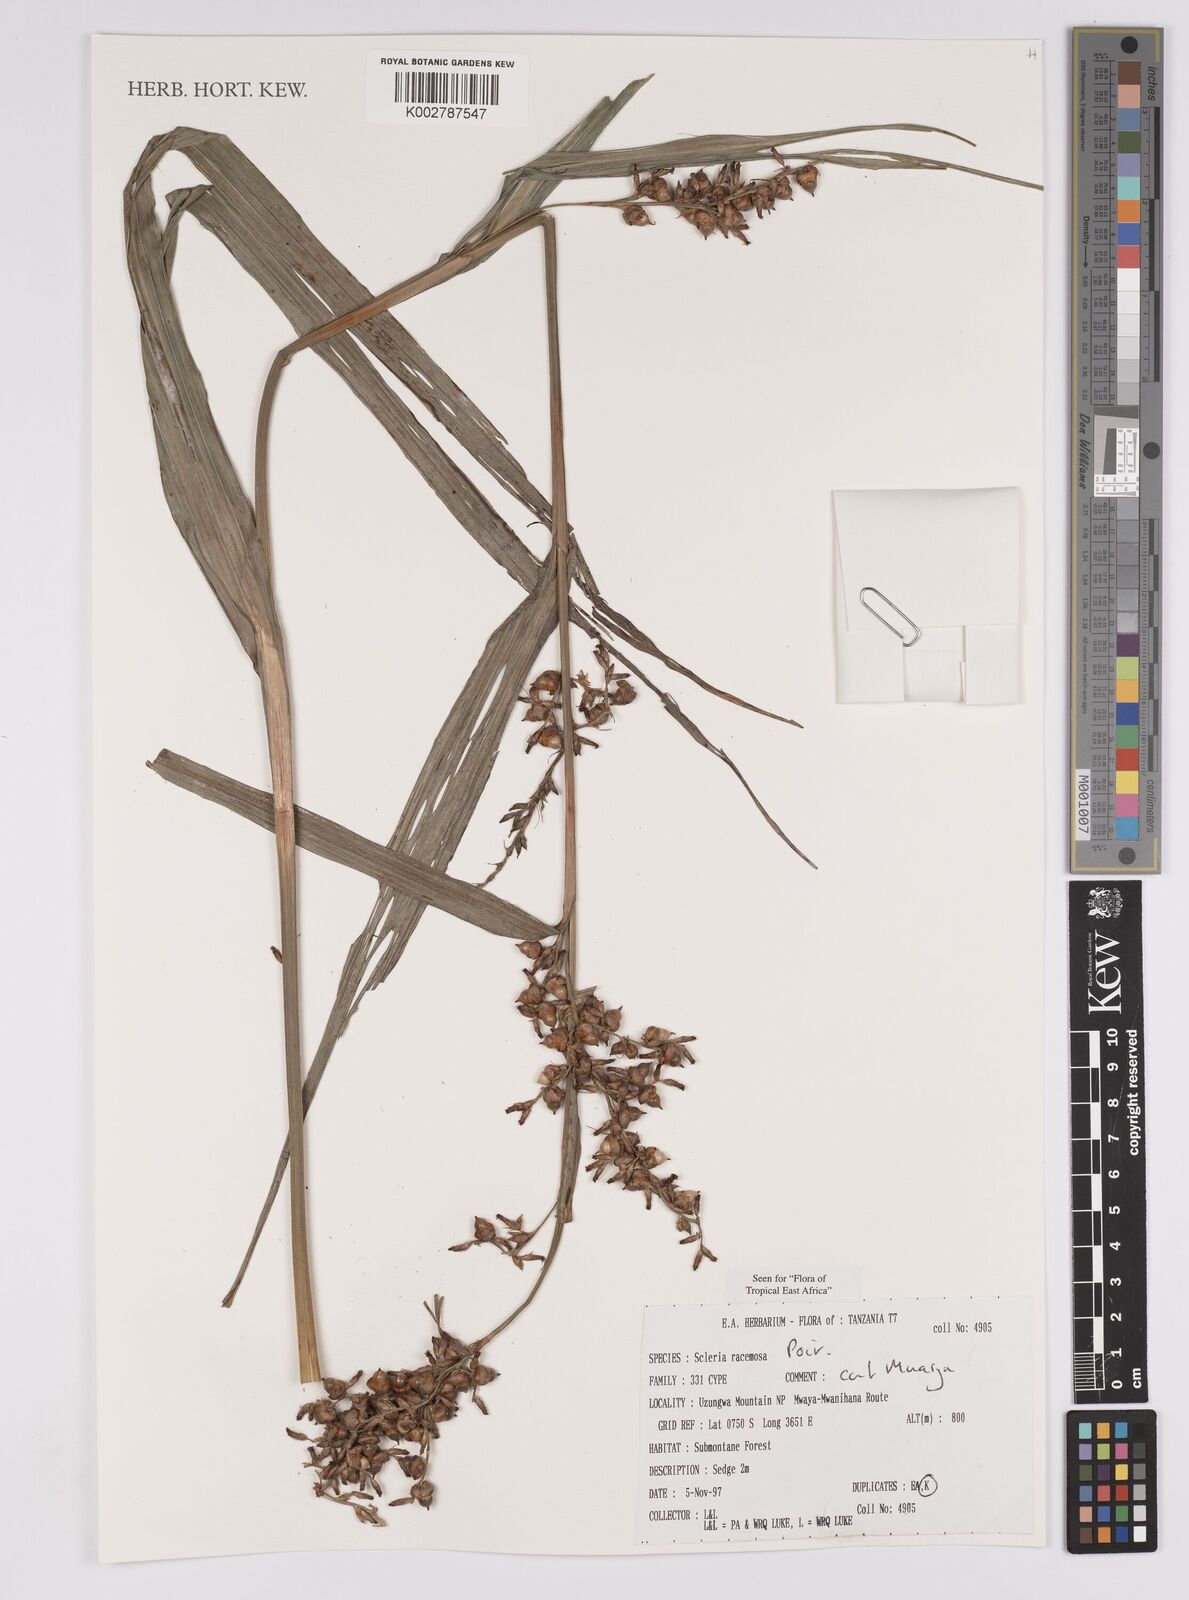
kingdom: Plantae
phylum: Tracheophyta
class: Liliopsida
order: Poales
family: Cyperaceae
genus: Scleria
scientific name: Scleria racemosa
